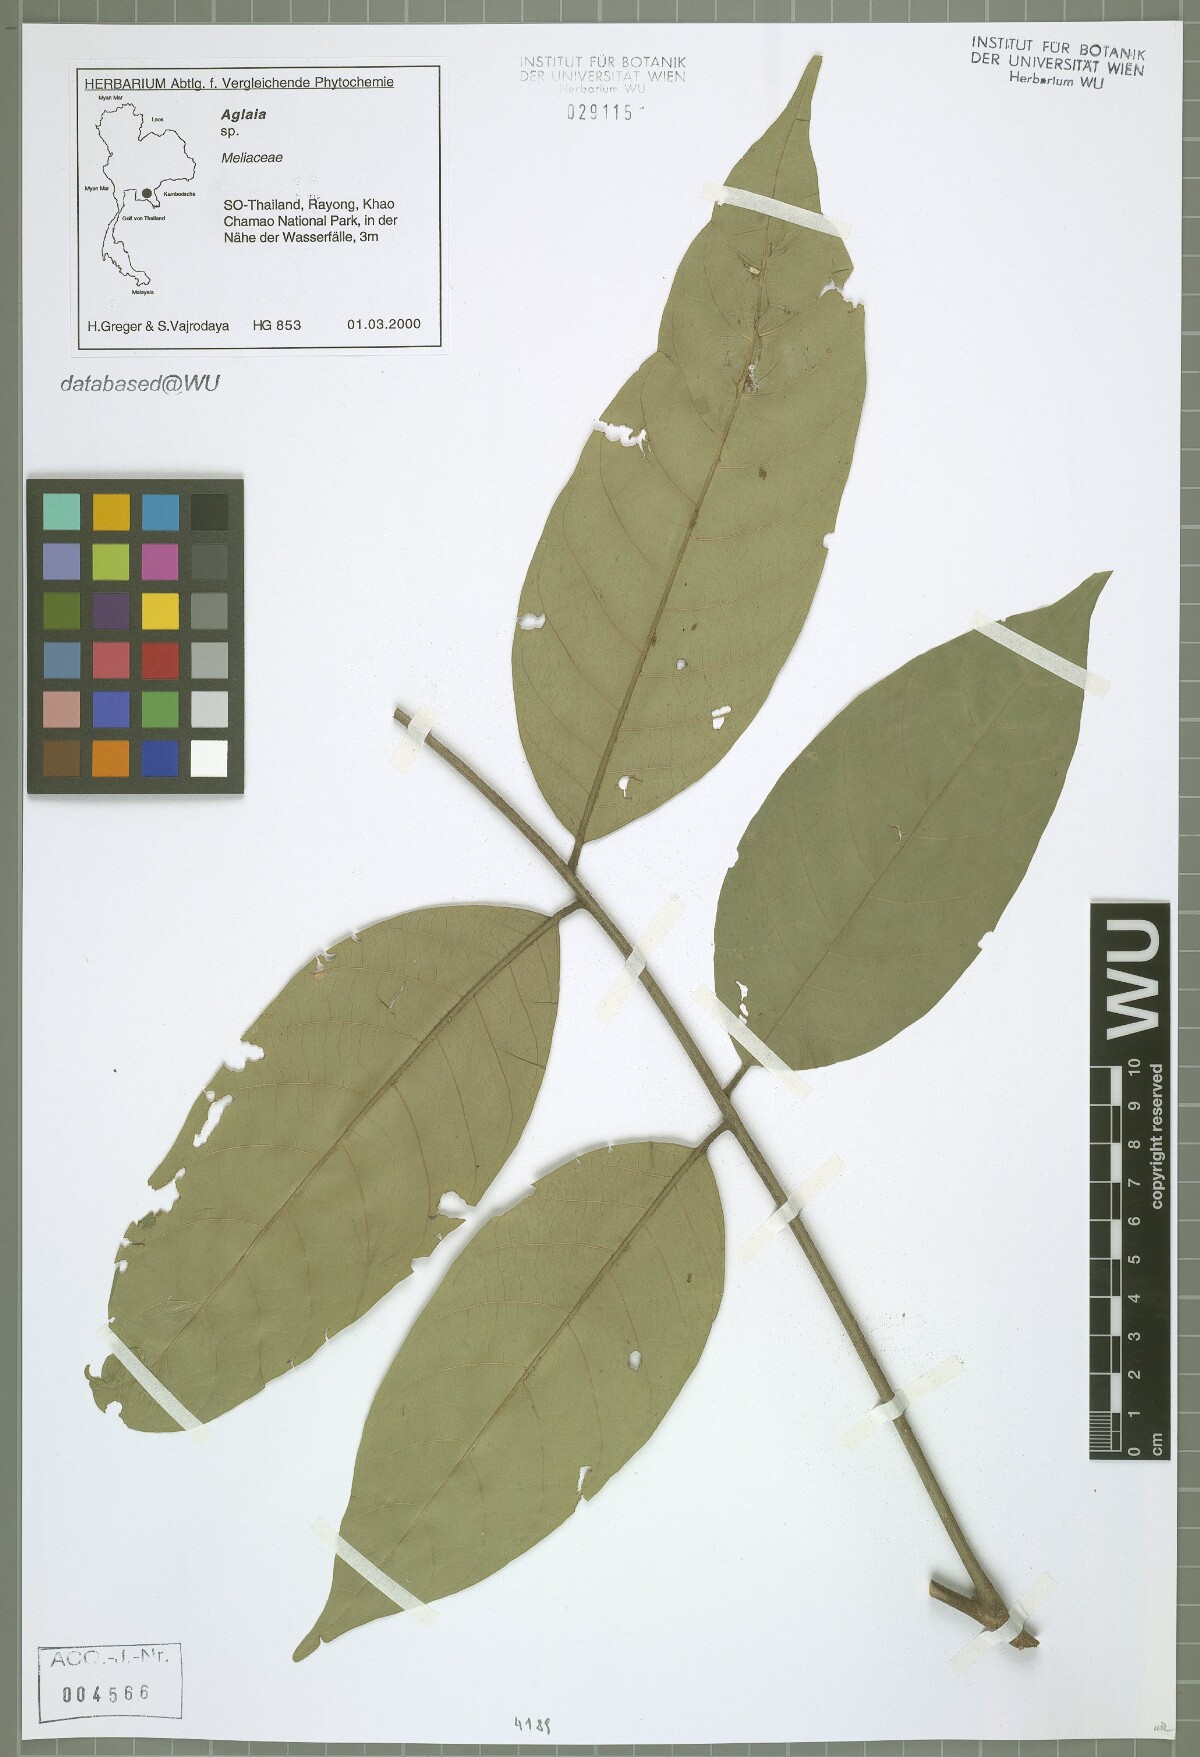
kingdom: Plantae
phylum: Tracheophyta
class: Magnoliopsida
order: Sapindales
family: Meliaceae
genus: Aglaia
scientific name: Aglaia edulis
